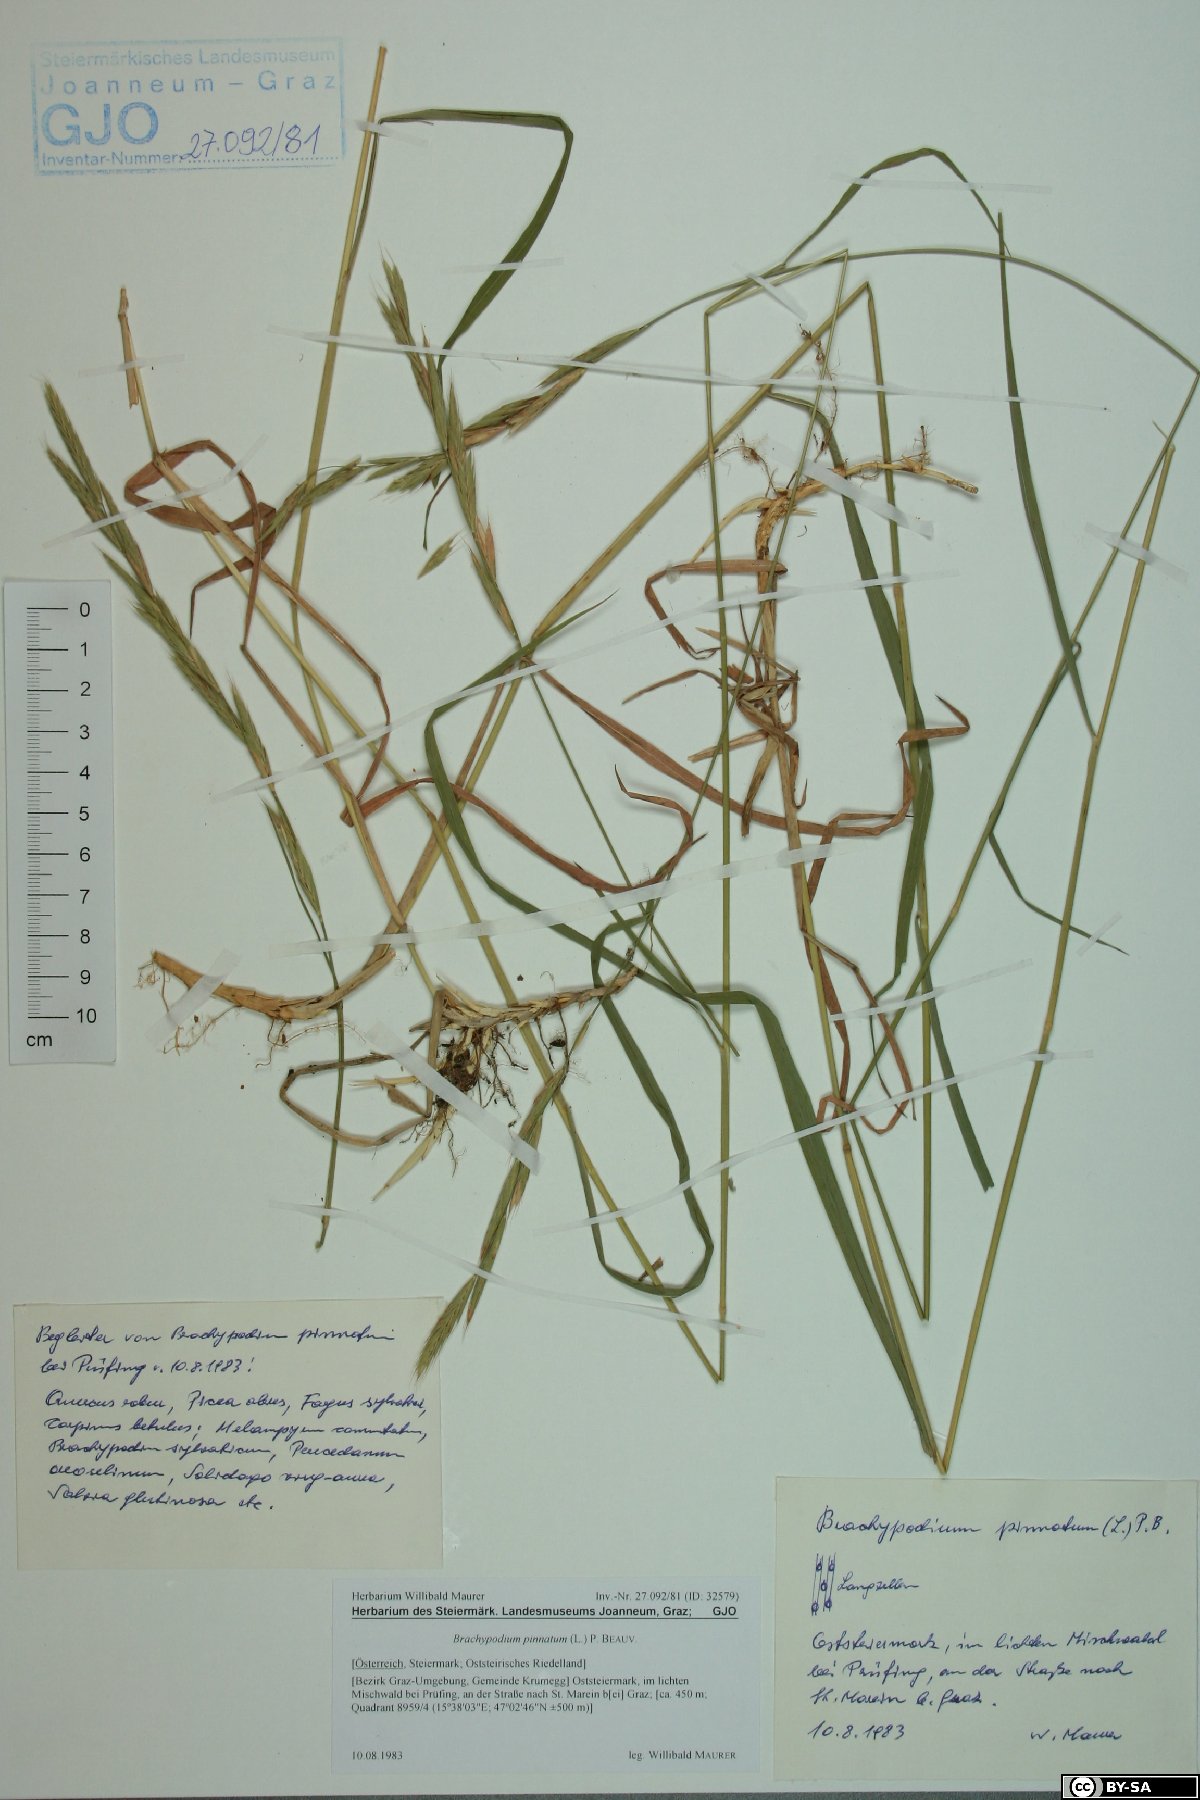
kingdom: Plantae
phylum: Tracheophyta
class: Liliopsida
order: Poales
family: Poaceae
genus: Brachypodium
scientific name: Brachypodium pinnatum
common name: Tor grass
